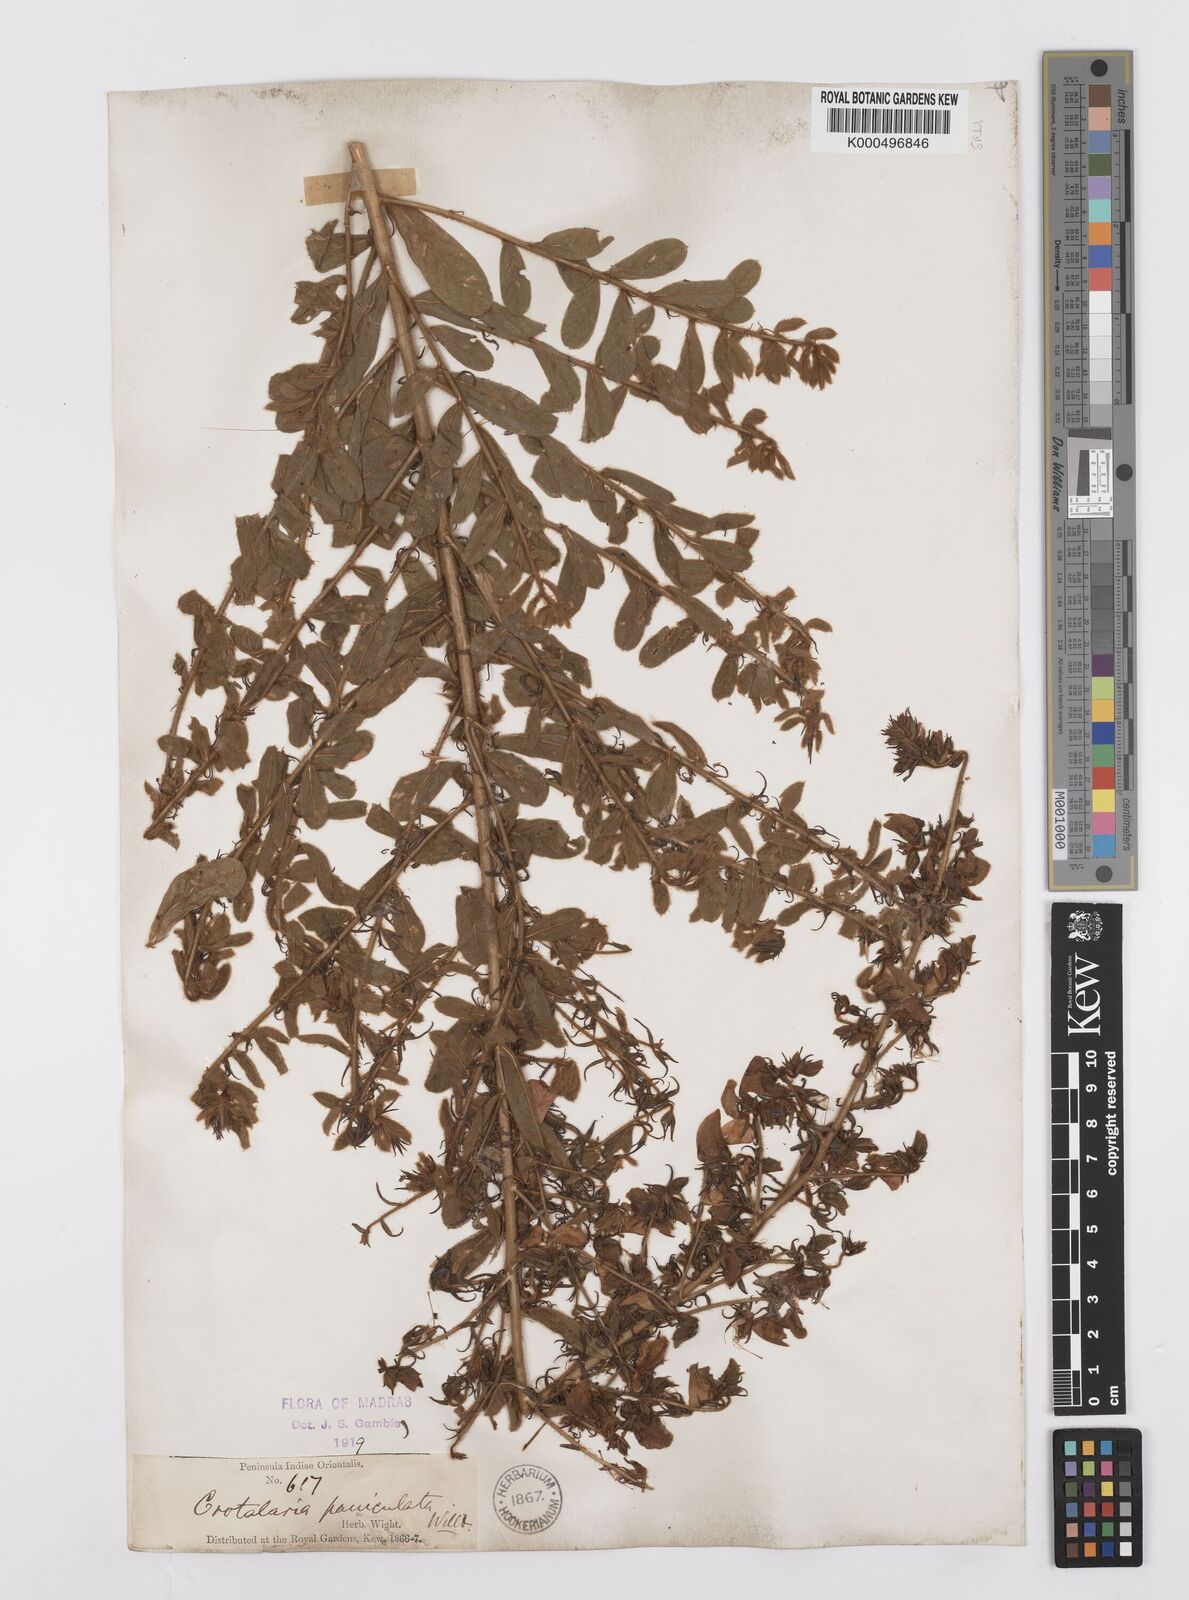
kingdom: Plantae
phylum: Tracheophyta
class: Magnoliopsida
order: Fabales
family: Fabaceae
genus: Crotalaria
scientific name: Crotalaria paniculata
